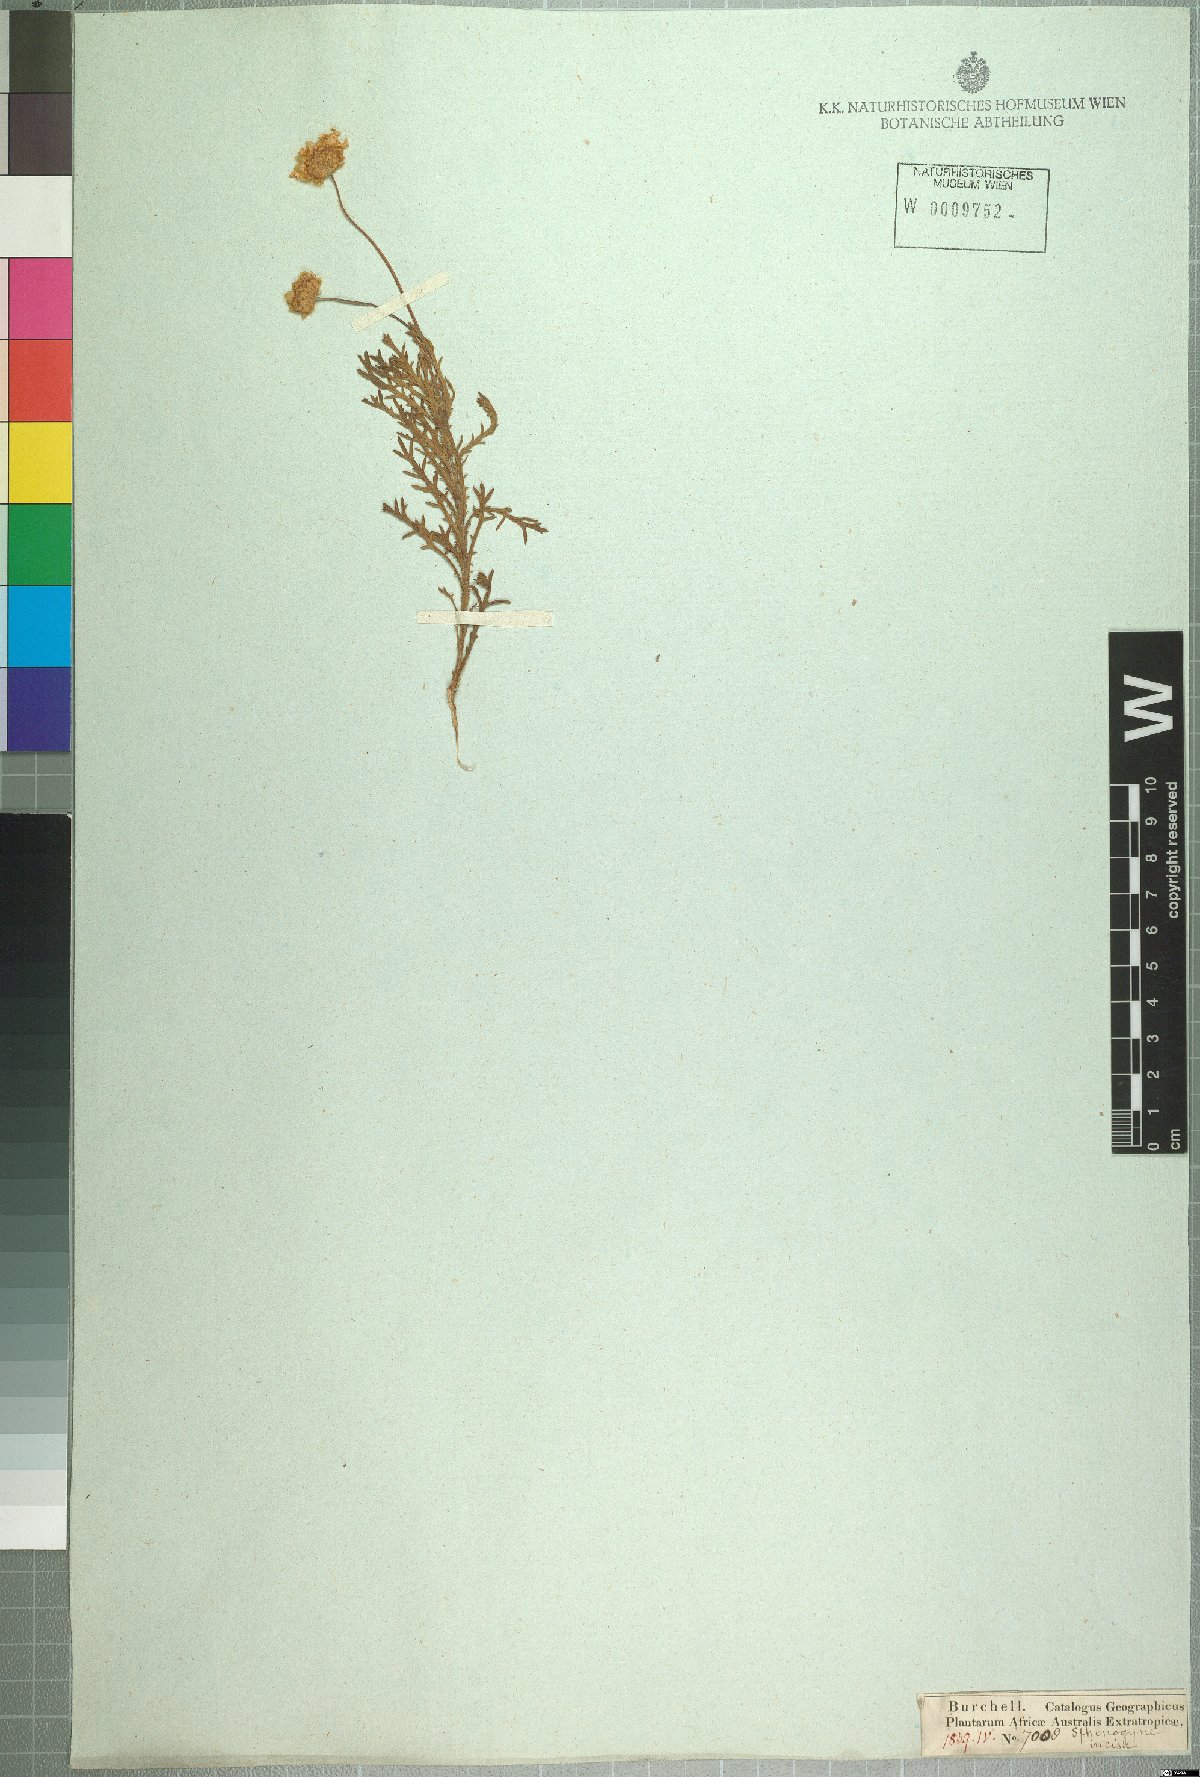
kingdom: Plantae
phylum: Tracheophyta
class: Magnoliopsida
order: Asterales
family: Asteraceae
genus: Ursinia
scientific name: Ursinia serrata
